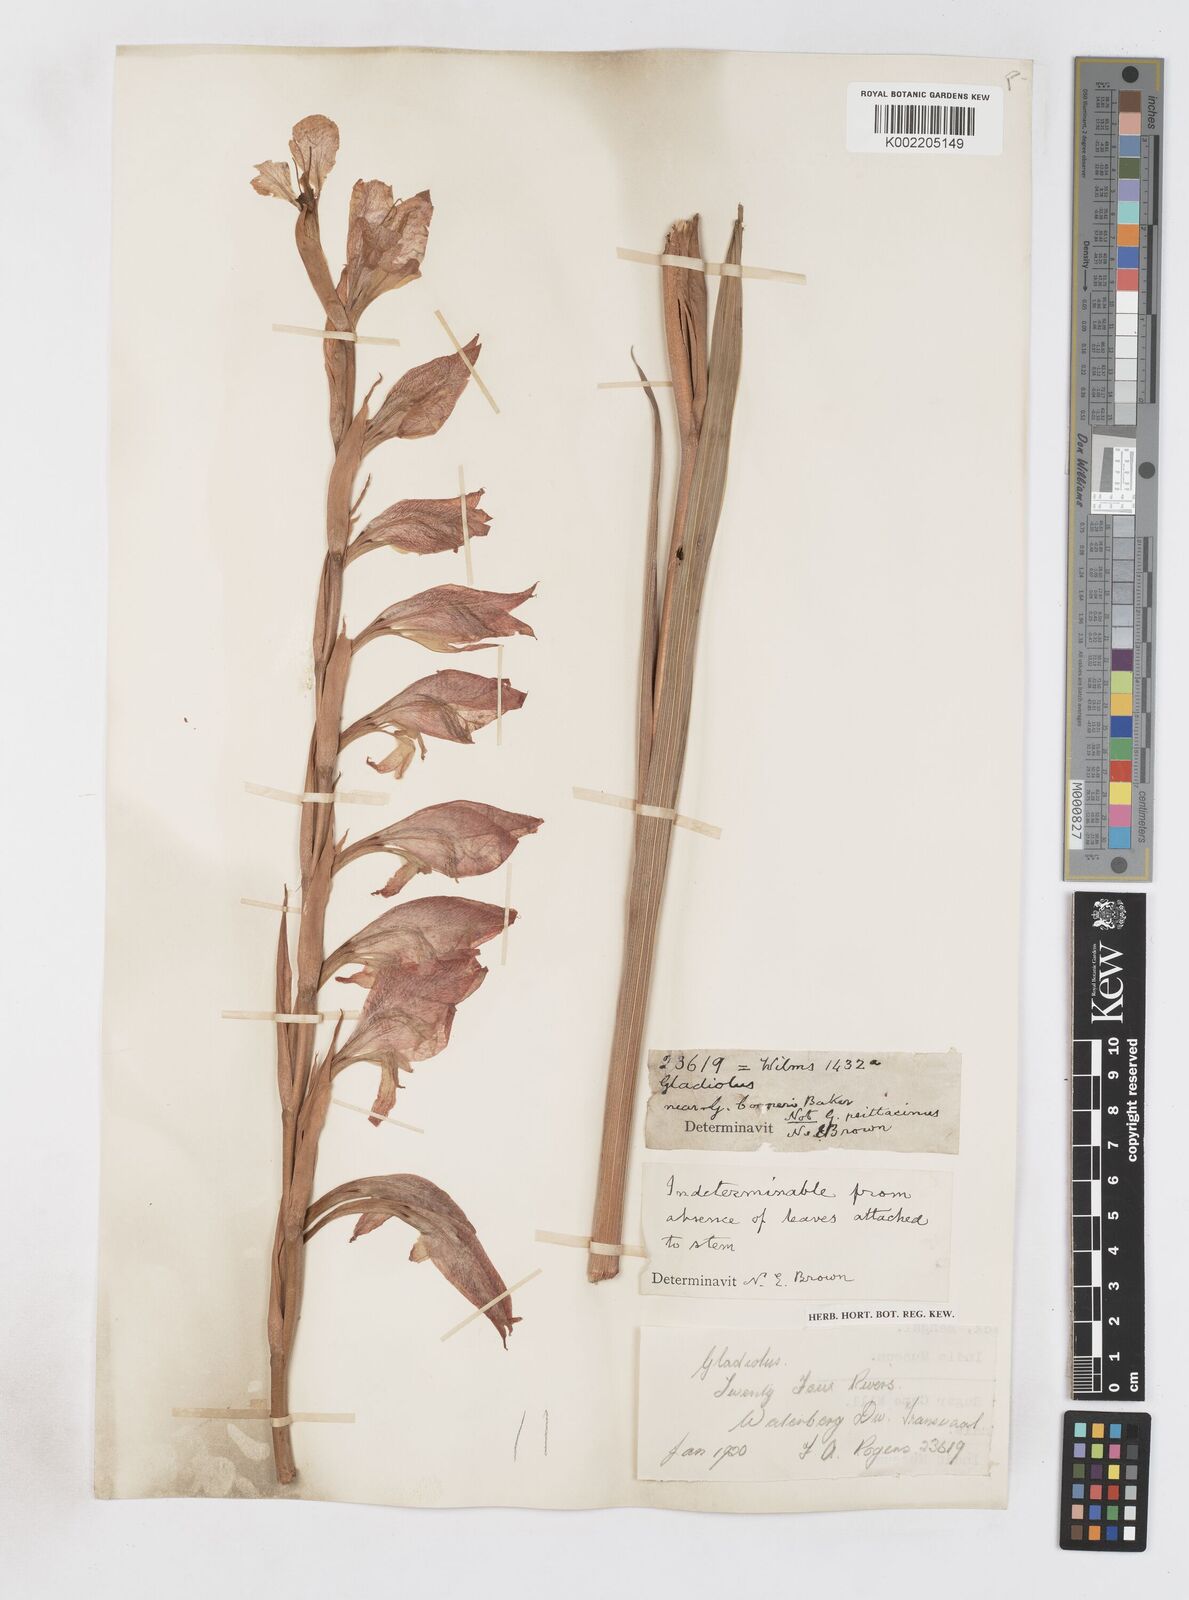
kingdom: Plantae
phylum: Tracheophyta
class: Liliopsida
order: Asparagales
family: Iridaceae
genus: Gladiolus
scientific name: Gladiolus dalenii
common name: Cornflag
